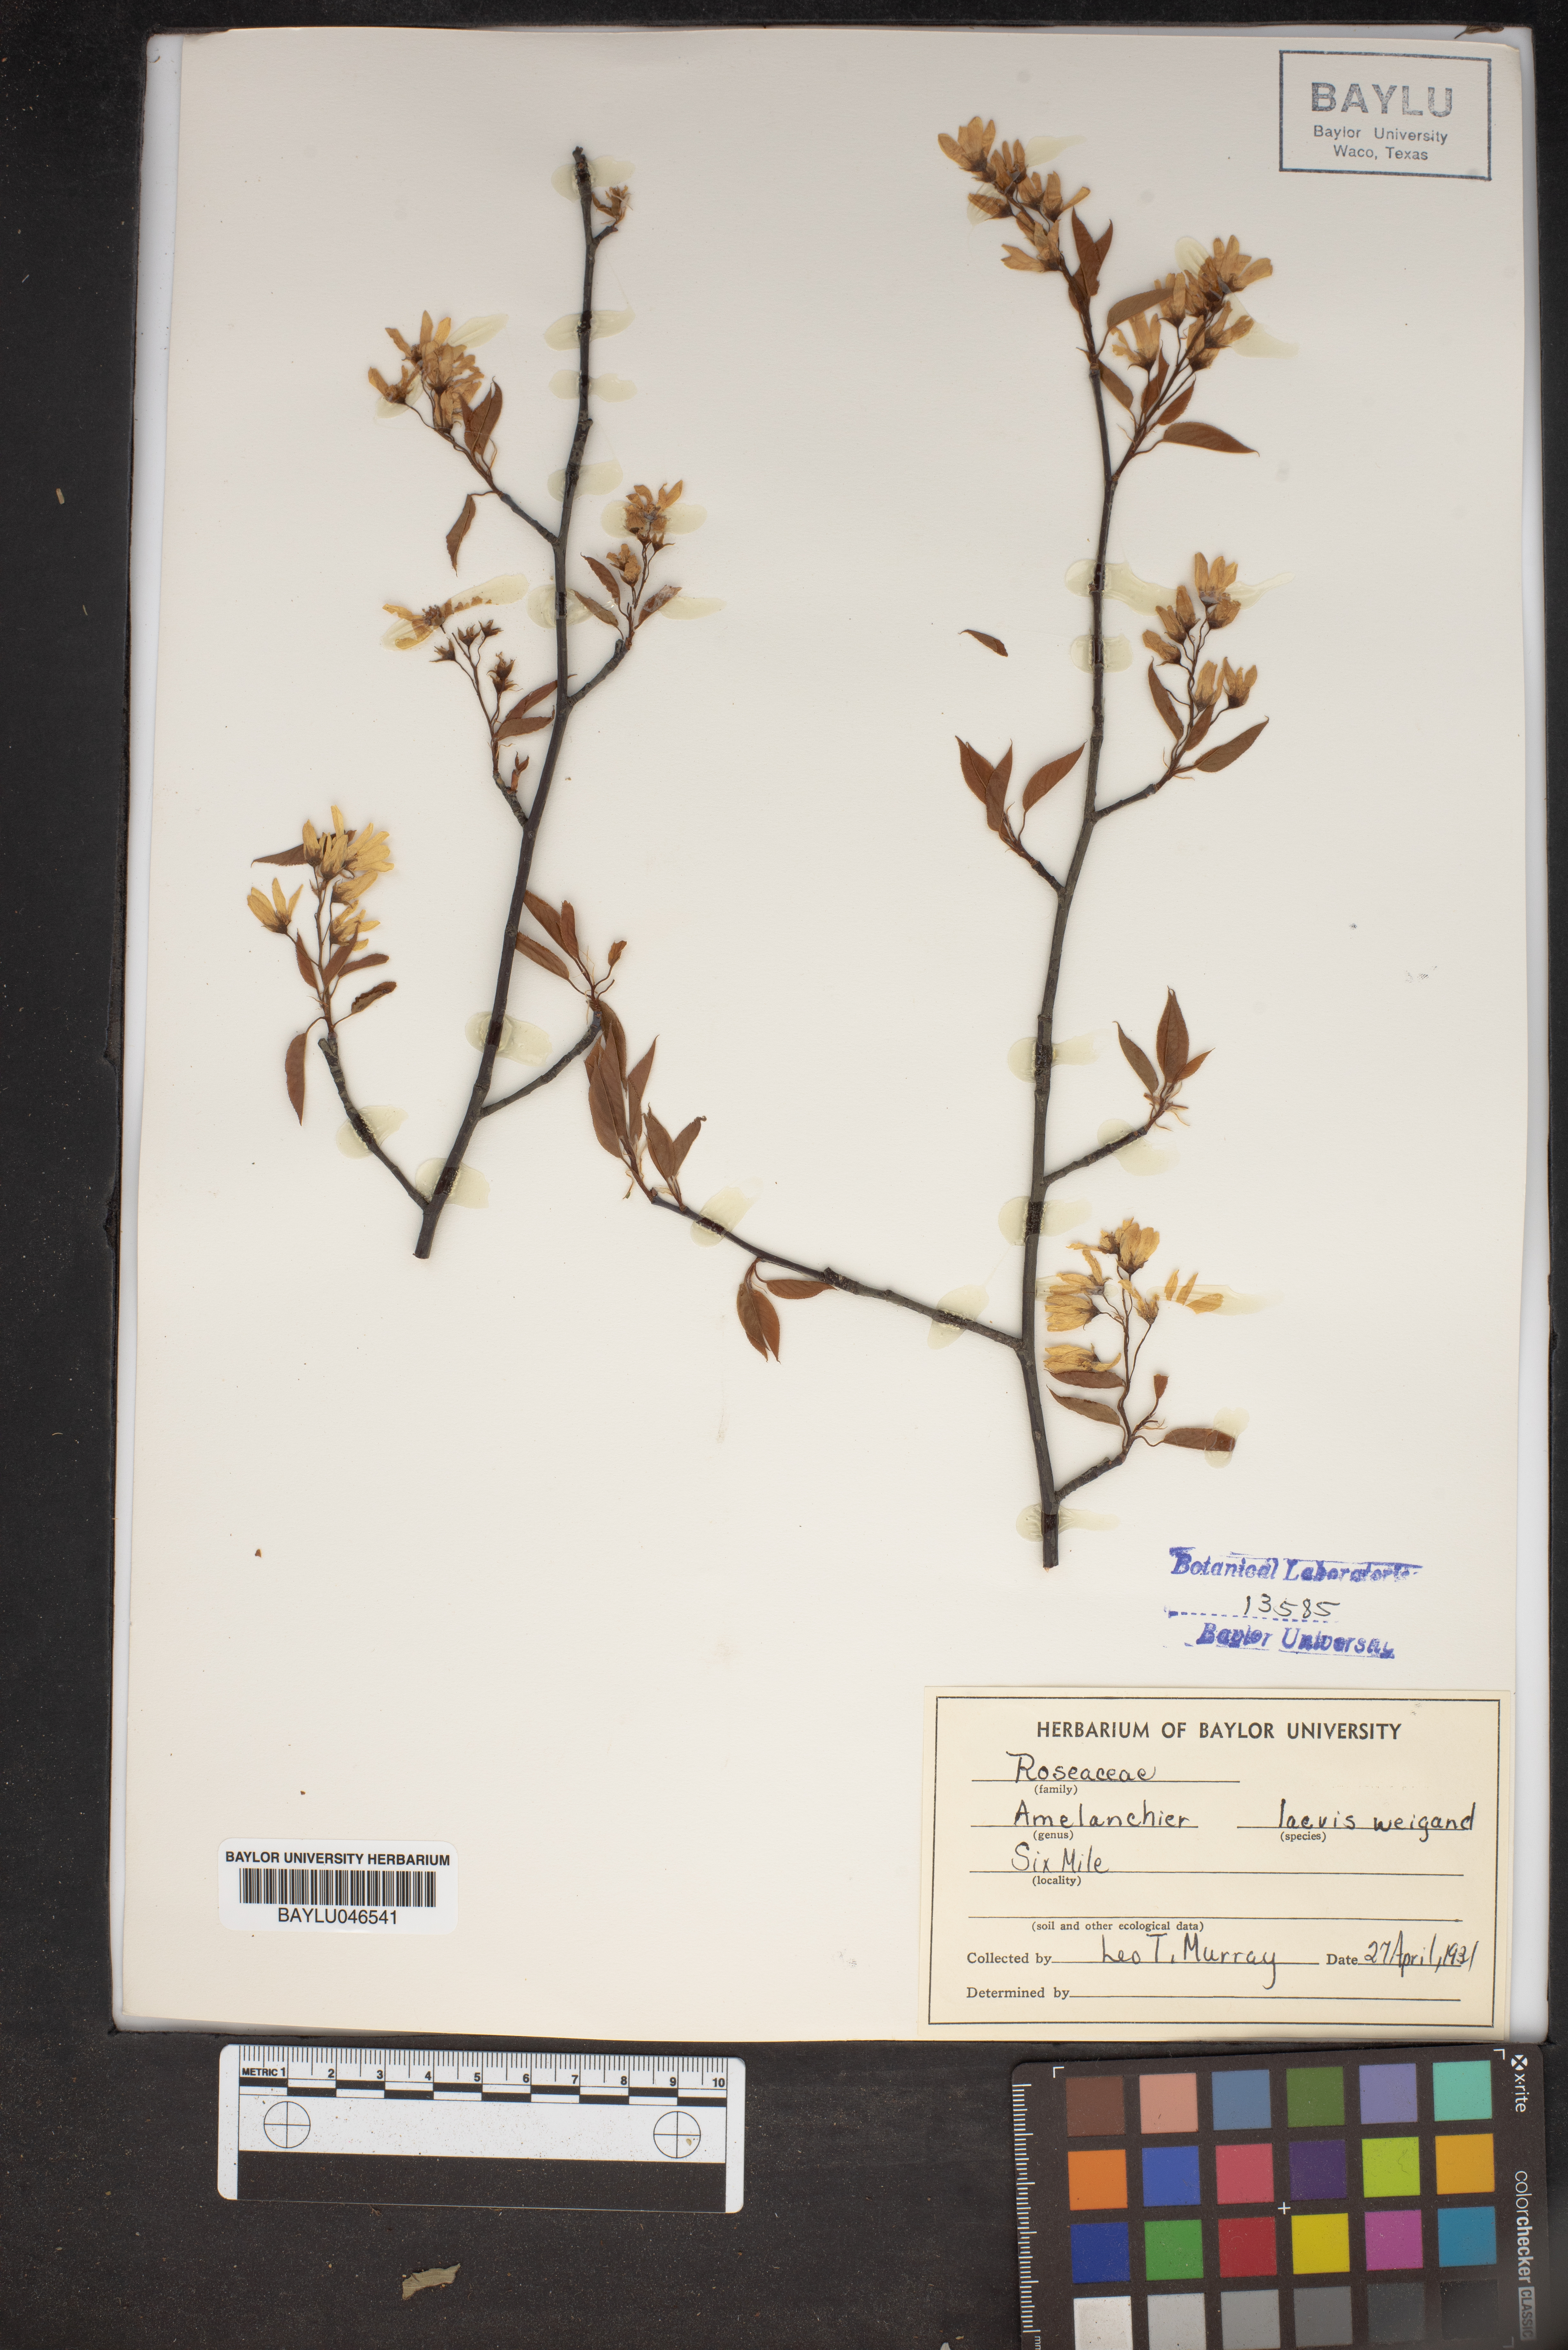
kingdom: Plantae
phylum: Tracheophyta
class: Magnoliopsida
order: Rosales
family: Rosaceae
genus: Amelanchier
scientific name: Amelanchier laevis
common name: Allegheny serviceberry
